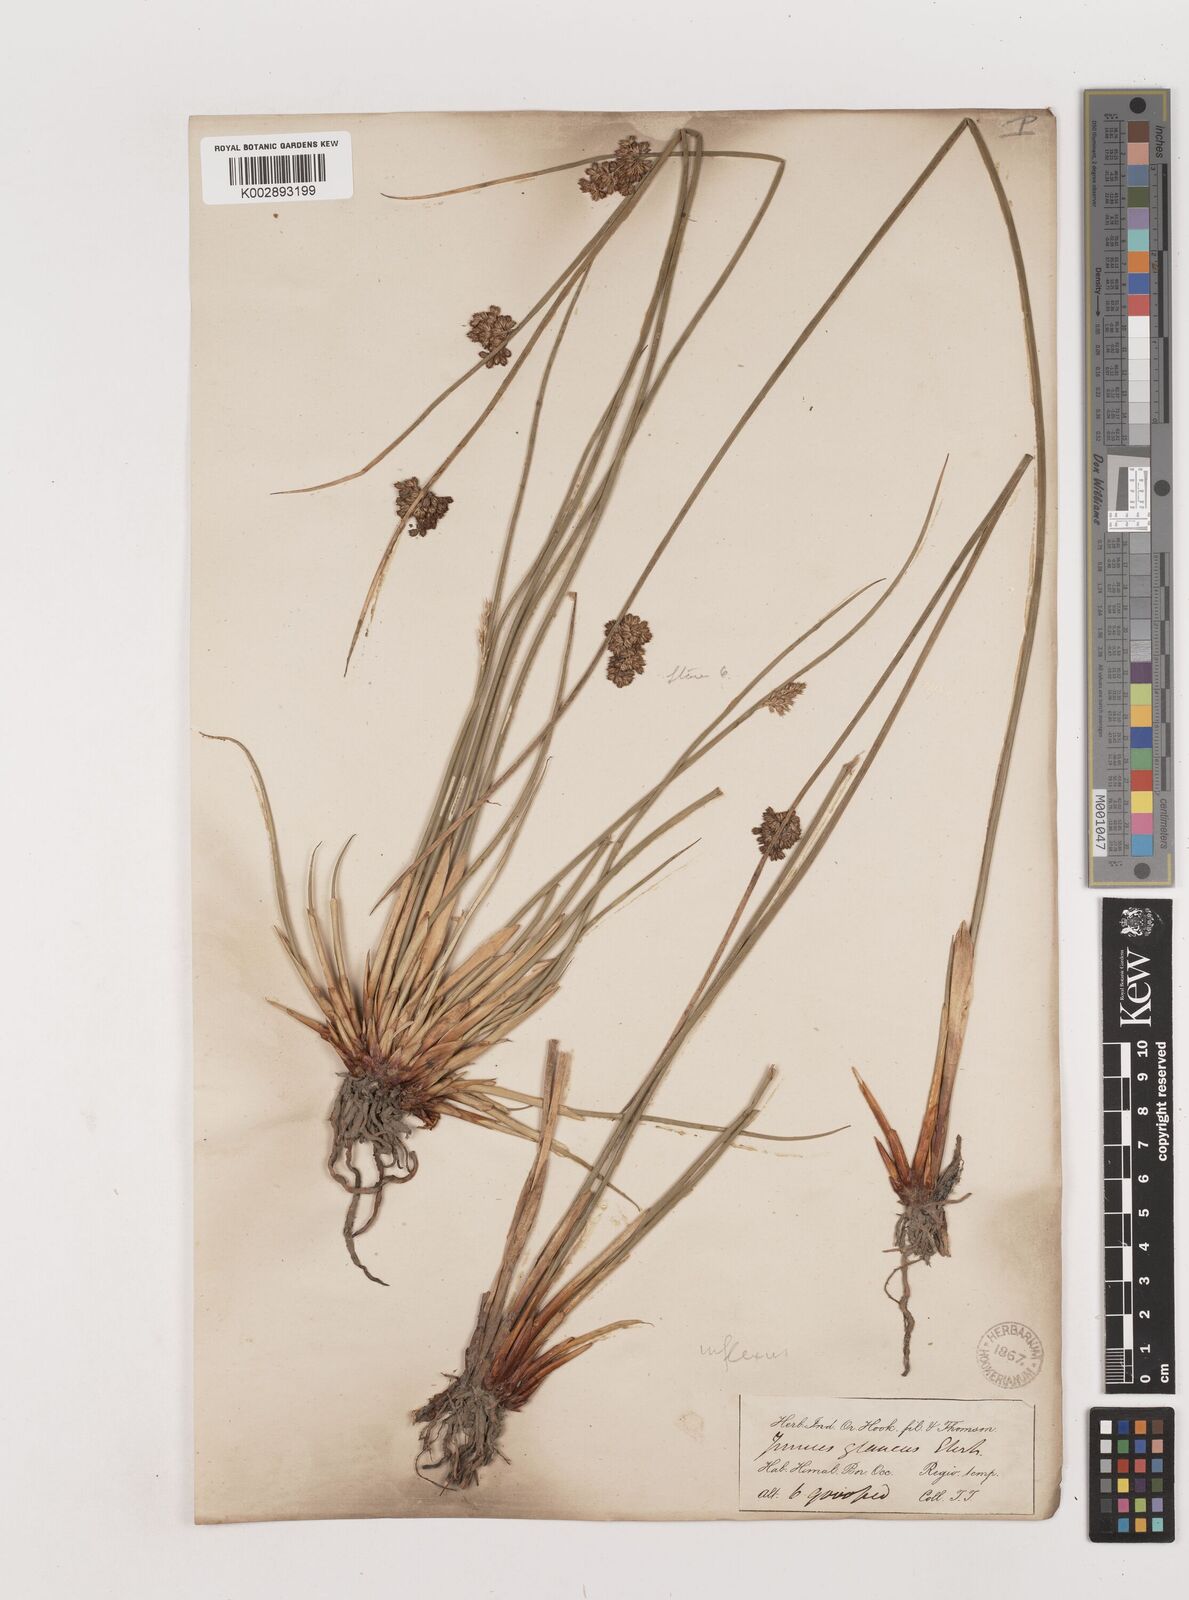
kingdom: Plantae
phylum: Tracheophyta
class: Liliopsida
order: Poales
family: Juncaceae
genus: Juncus
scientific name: Juncus inflexus
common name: Hard rush
